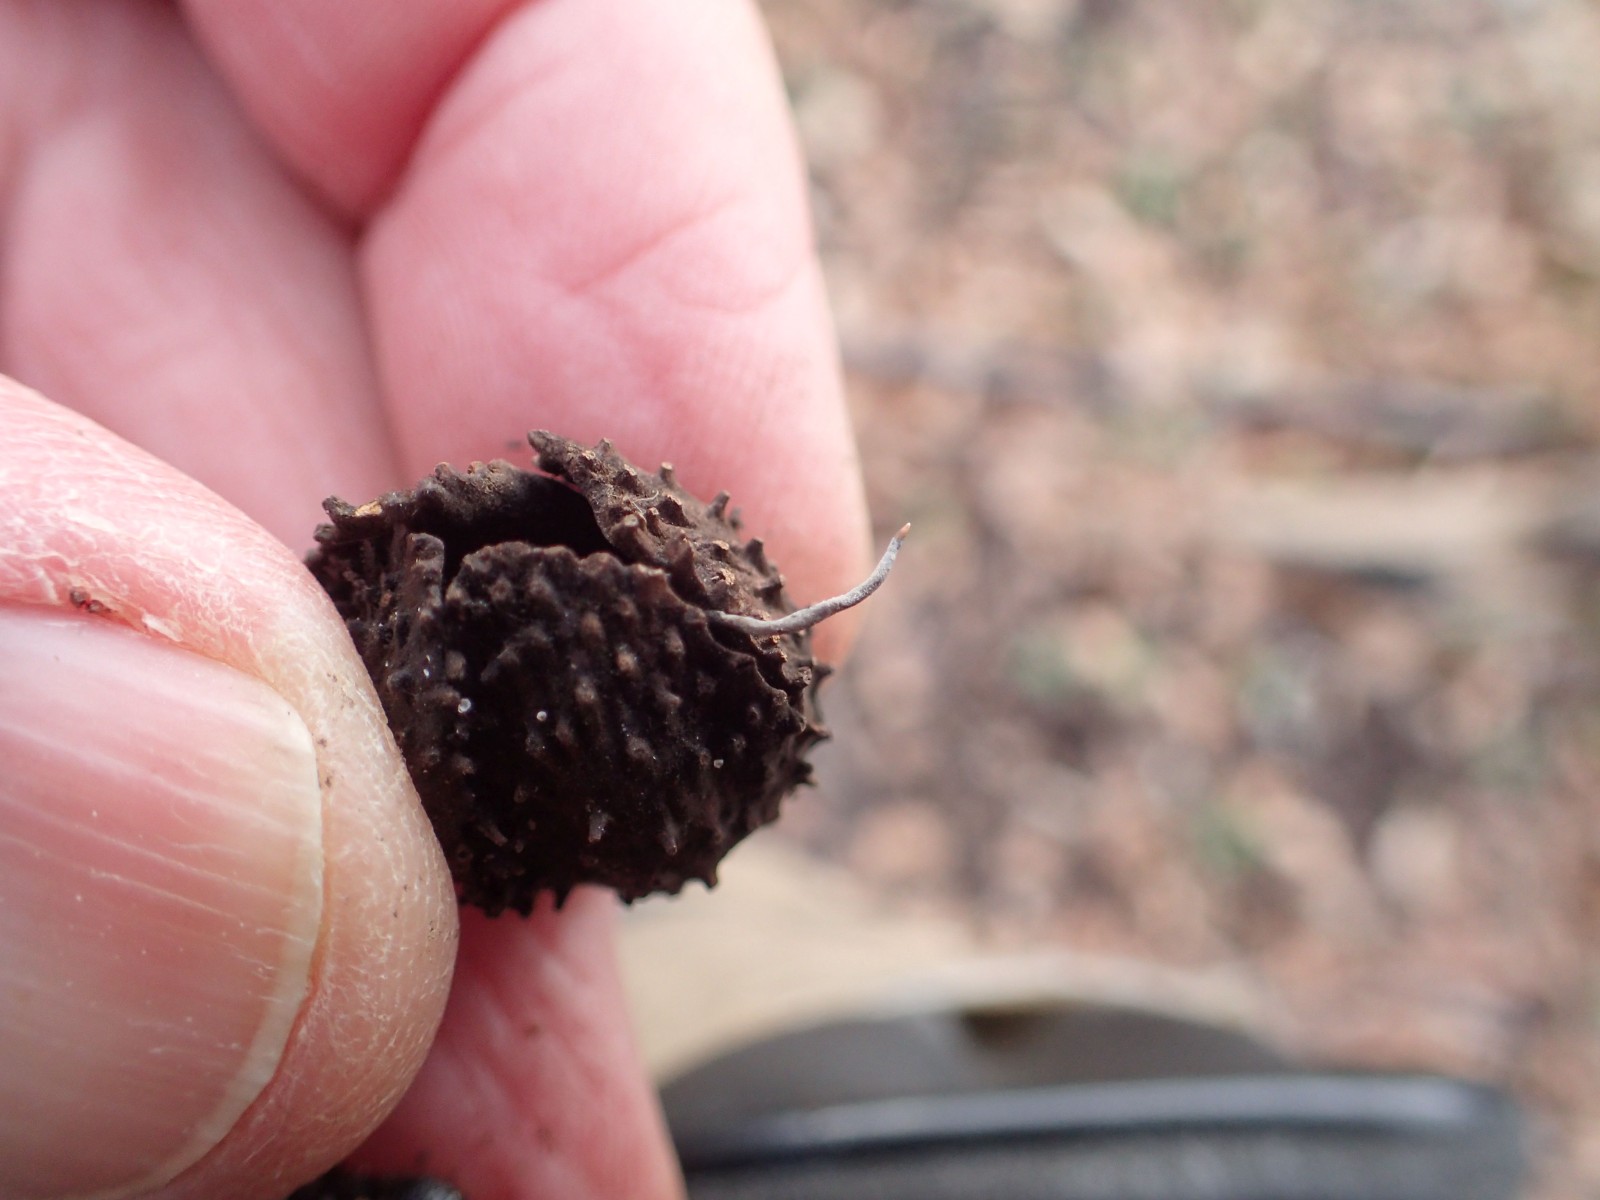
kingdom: Fungi
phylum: Ascomycota
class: Sordariomycetes
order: Xylariales
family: Xylariaceae
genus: Xylaria
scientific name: Xylaria carpophila
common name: bogskål-stødsvamp
